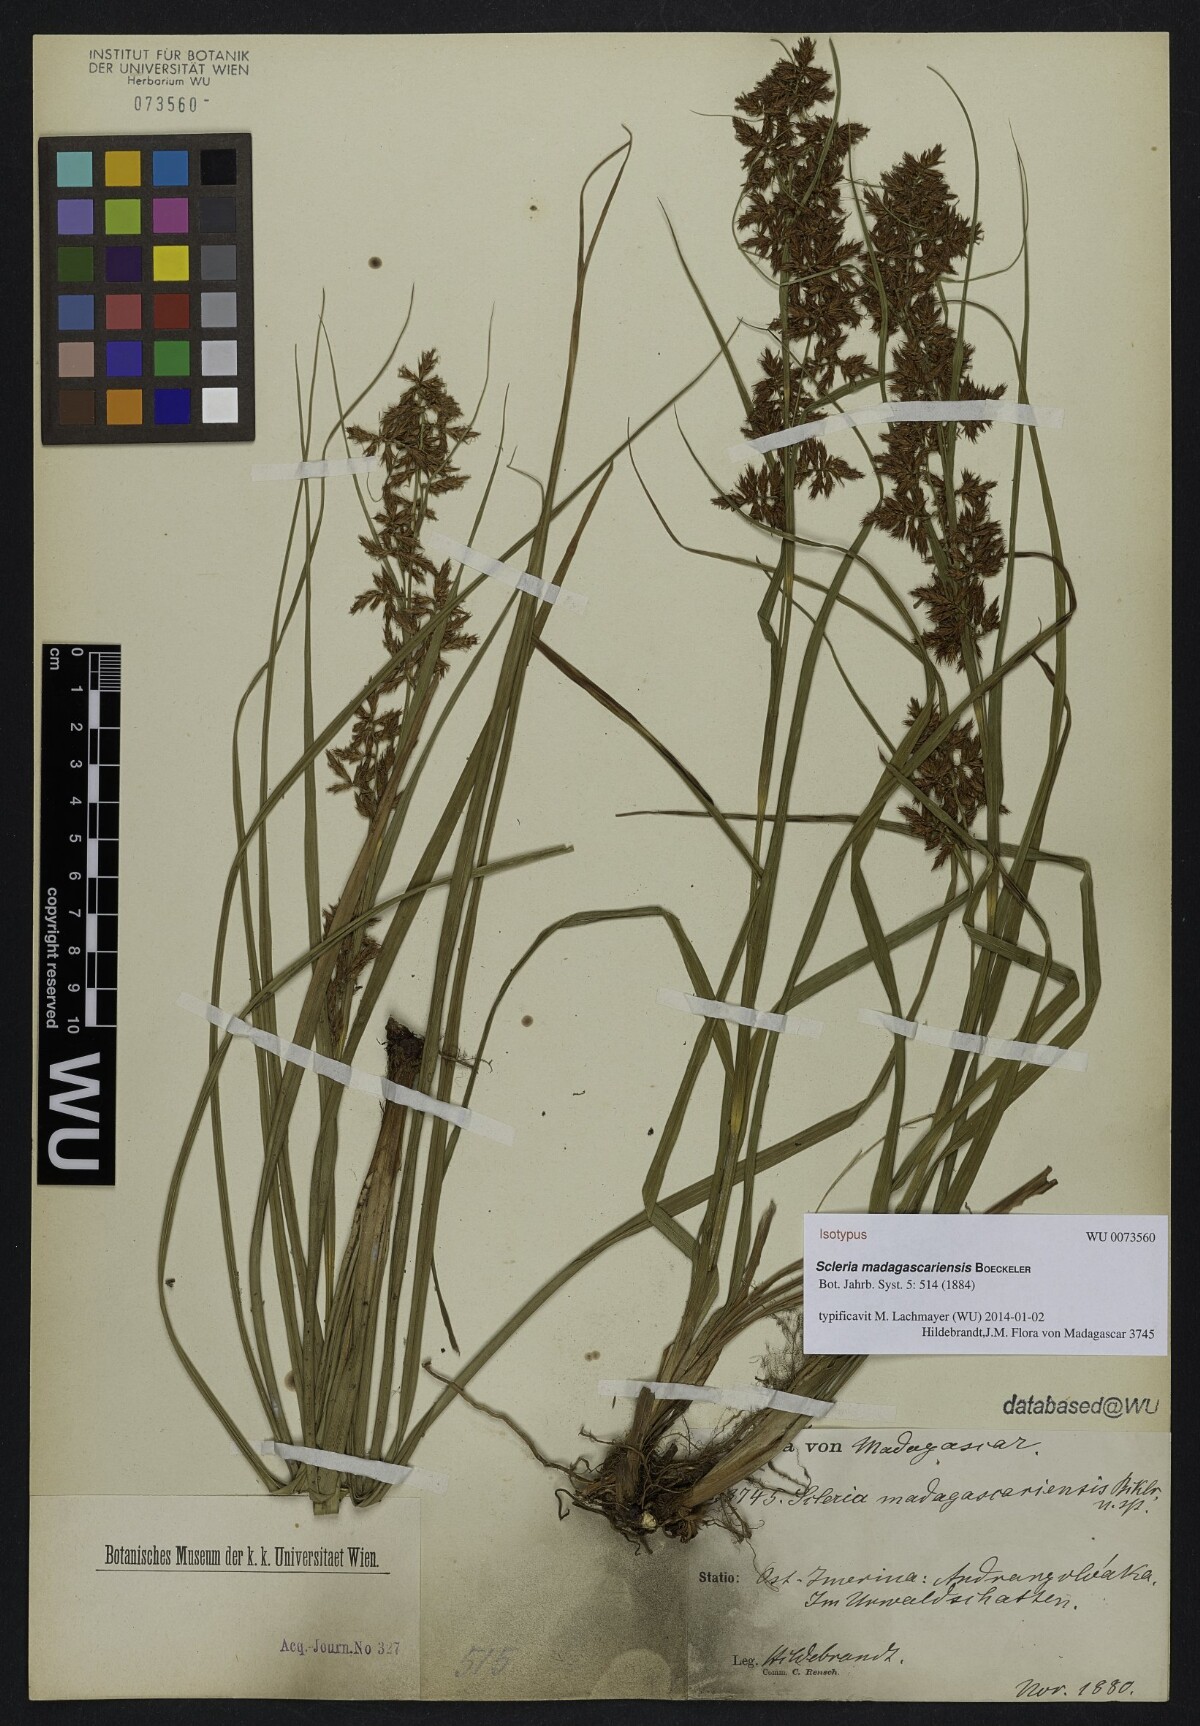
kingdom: Plantae
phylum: Tracheophyta
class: Liliopsida
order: Poales
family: Cyperaceae
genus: Scleria
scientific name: Scleria madagascariensis
